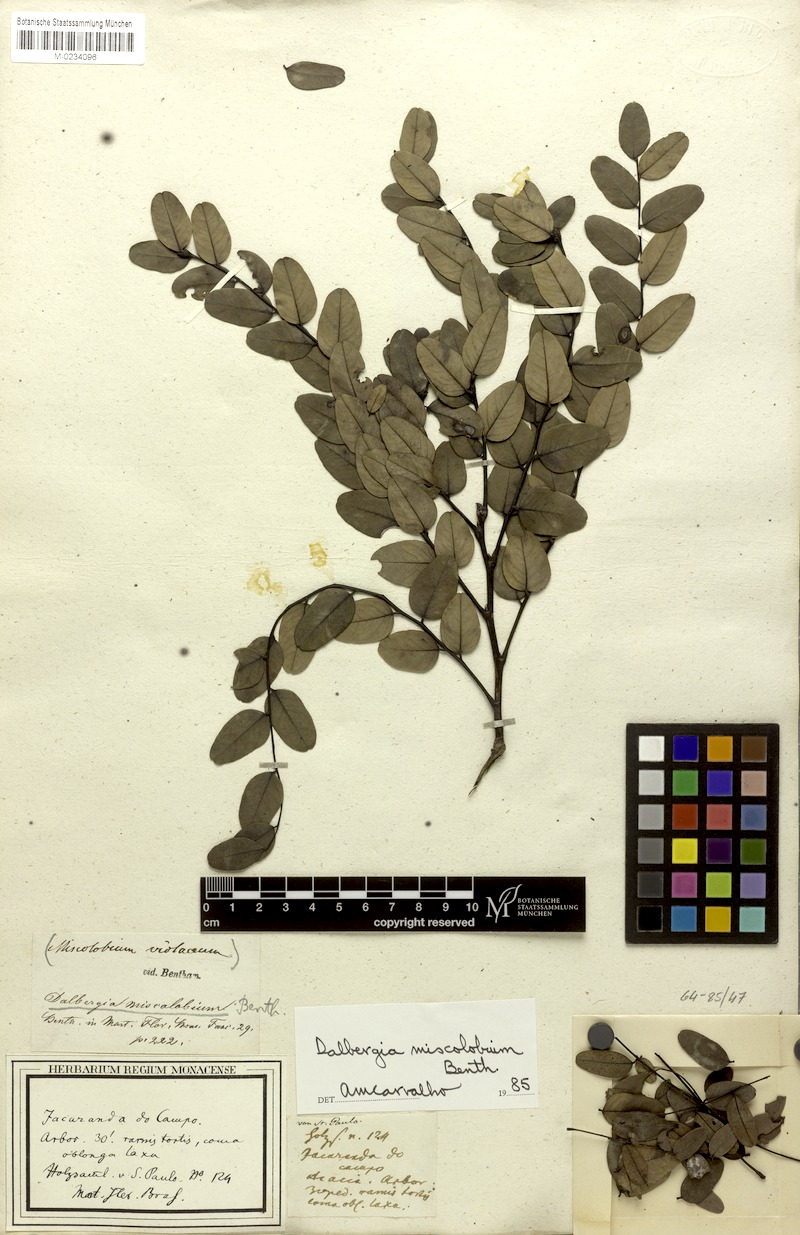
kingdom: Plantae
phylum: Tracheophyta
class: Magnoliopsida
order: Fabales
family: Fabaceae
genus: Dalbergia
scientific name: Dalbergia miscolobium
